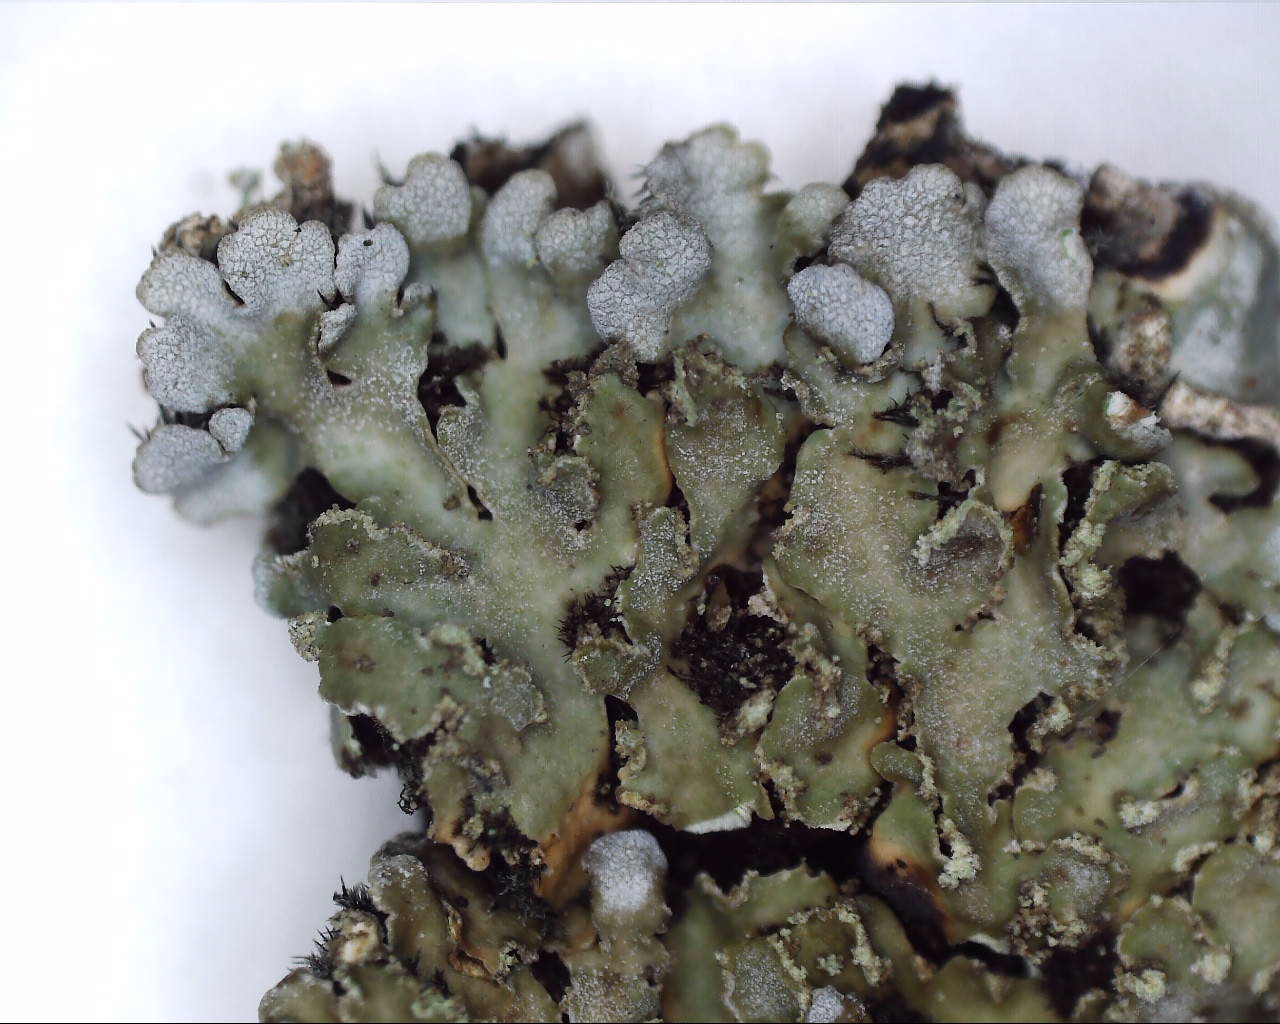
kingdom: Fungi
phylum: Ascomycota
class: Lecanoromycetes
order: Caliciales
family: Physciaceae
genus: Poeltonia
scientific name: Poeltonia grisea
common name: hvidgrå dugrosetlav
